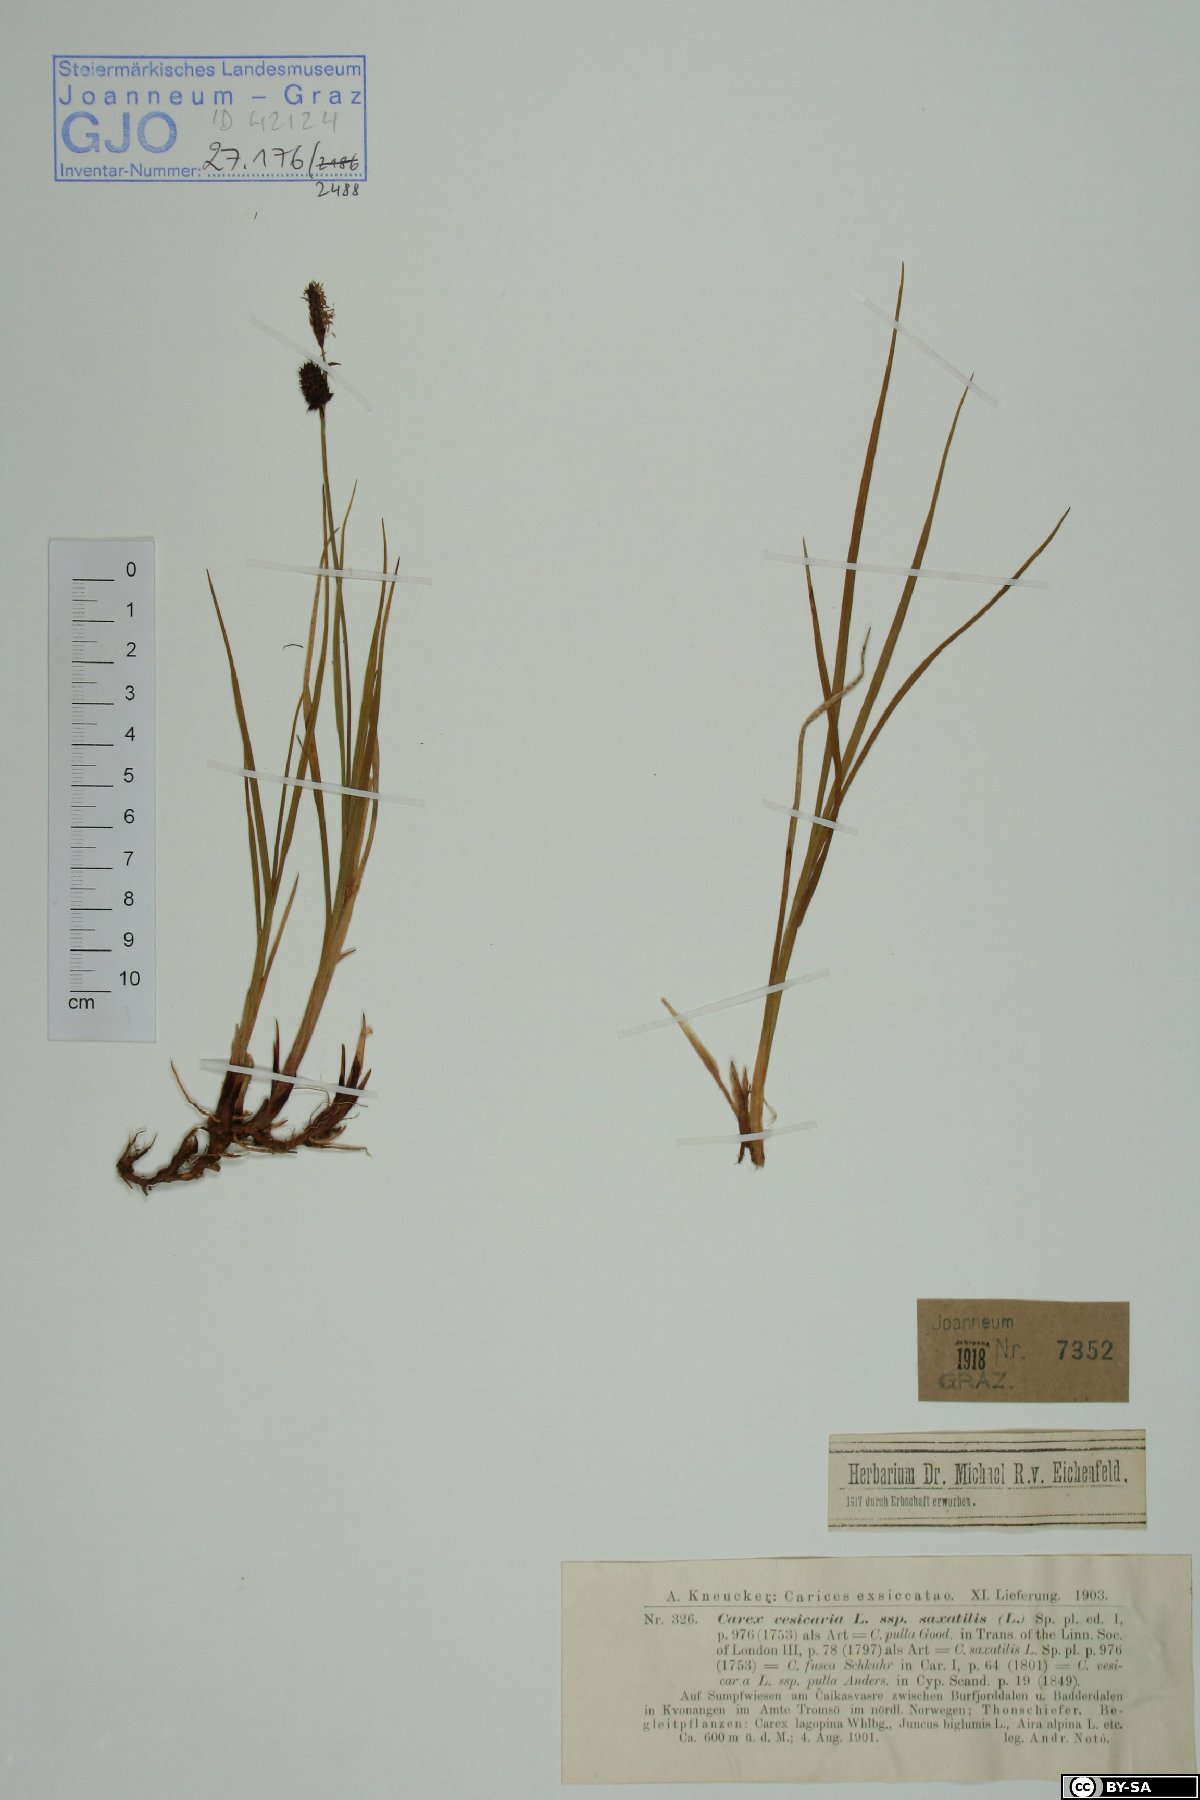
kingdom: Plantae
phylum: Tracheophyta
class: Liliopsida
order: Poales
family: Cyperaceae
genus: Carex
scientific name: Carex saxatilis
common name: Russet sedge
